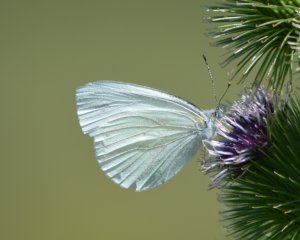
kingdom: Animalia
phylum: Arthropoda
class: Insecta
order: Lepidoptera
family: Pieridae
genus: Pieris
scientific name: Pieris oleracea
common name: Mustard White
